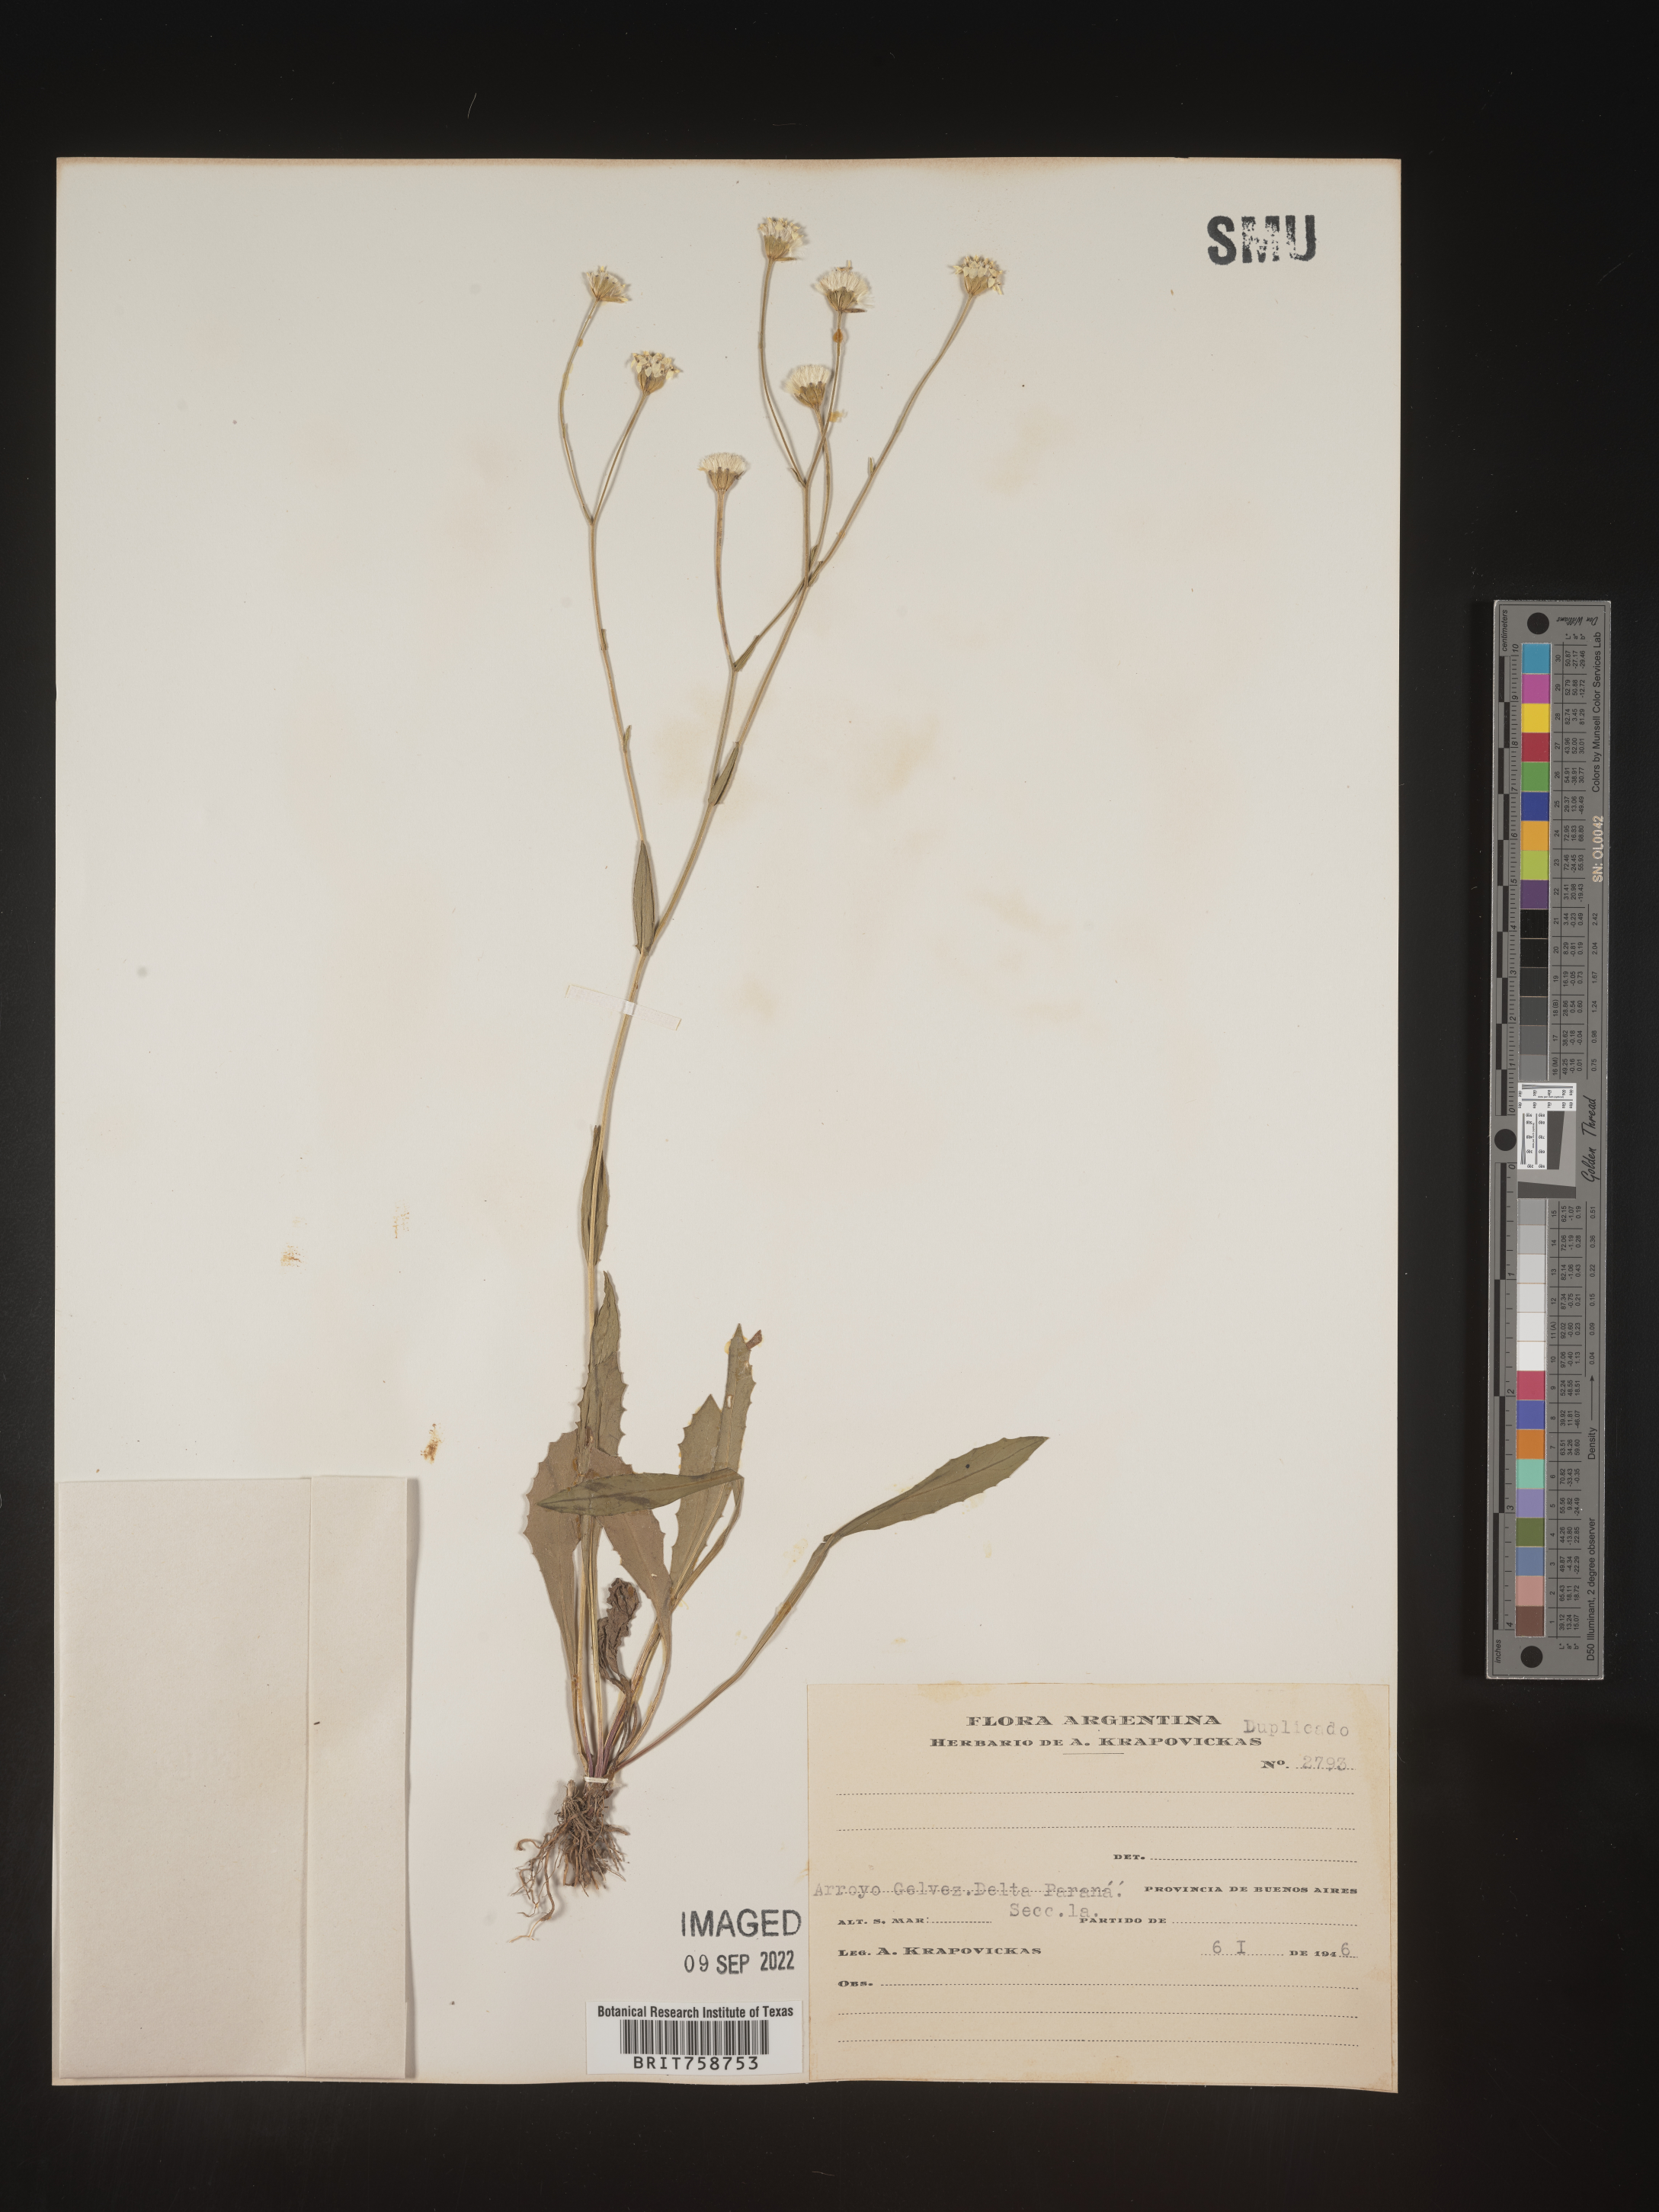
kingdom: Plantae
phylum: Tracheophyta
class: Magnoliopsida
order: Asterales
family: Asteraceae
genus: Vernonia
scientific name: Vernonia
